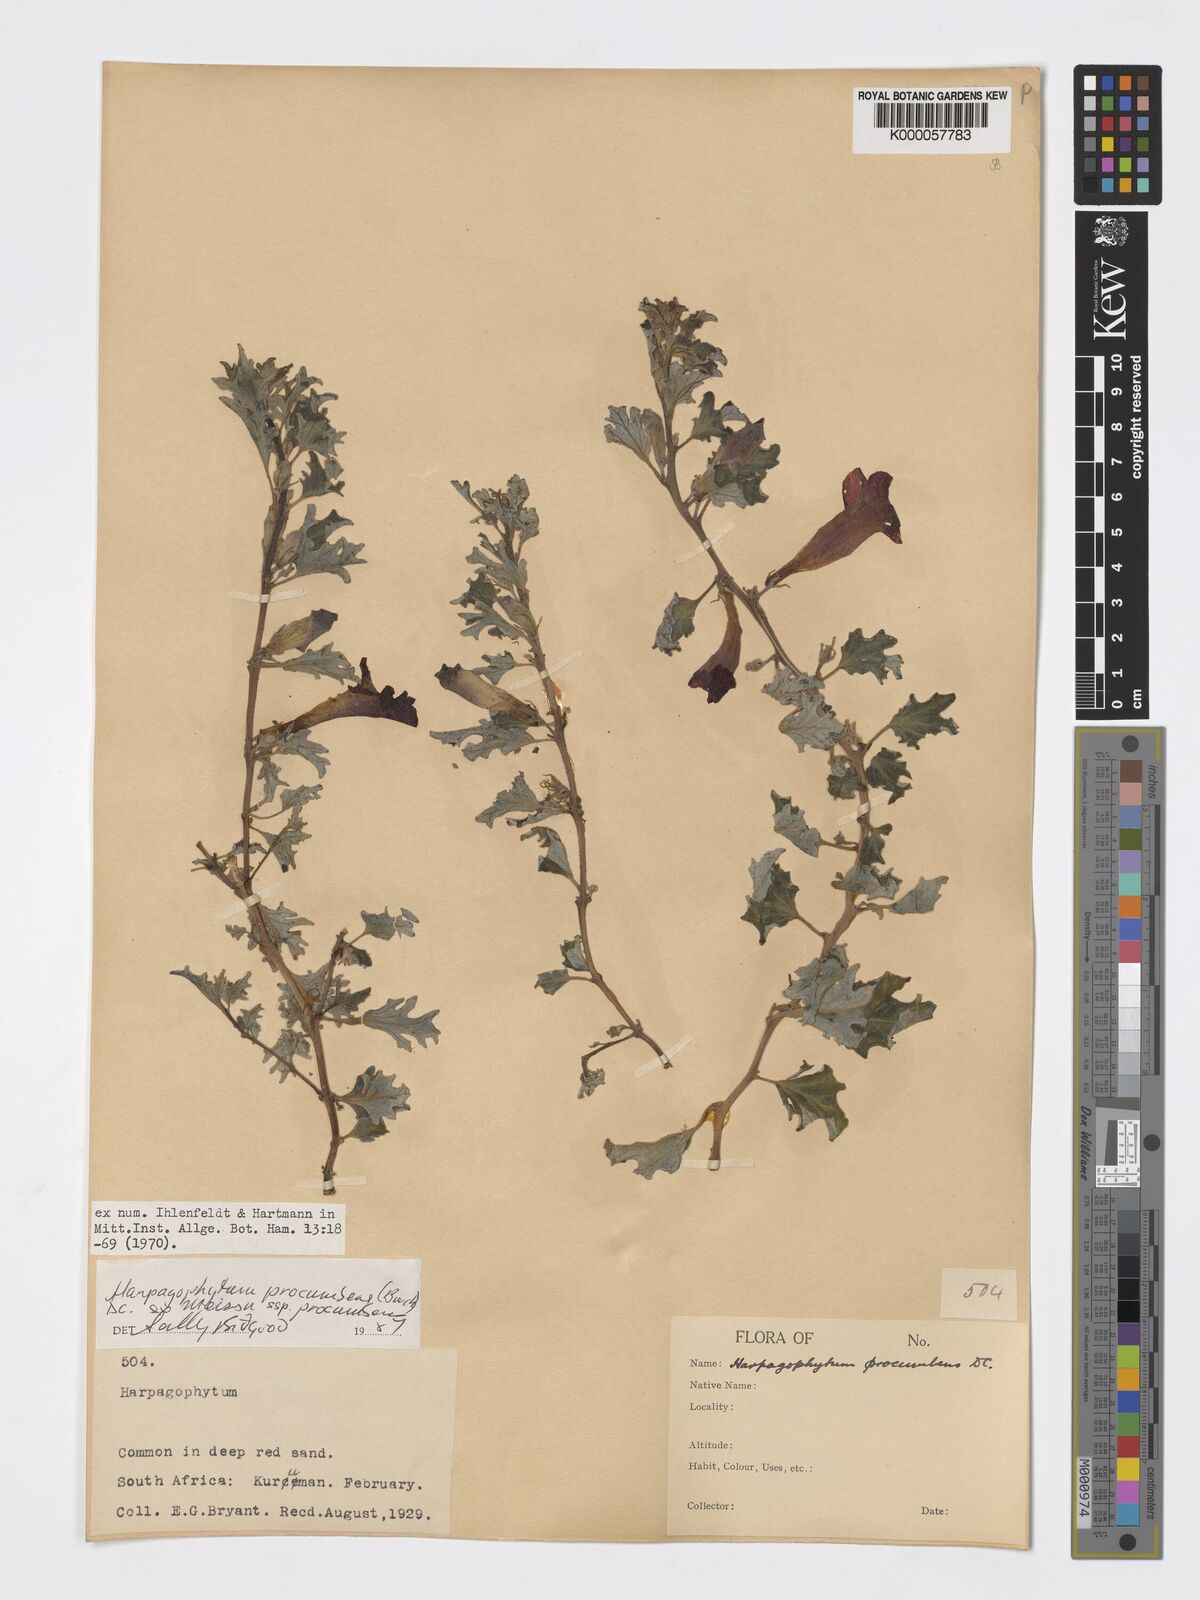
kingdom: Plantae
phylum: Tracheophyta
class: Magnoliopsida
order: Lamiales
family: Pedaliaceae
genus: Harpagophytum
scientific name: Harpagophytum procumbens
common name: Grappleplant
